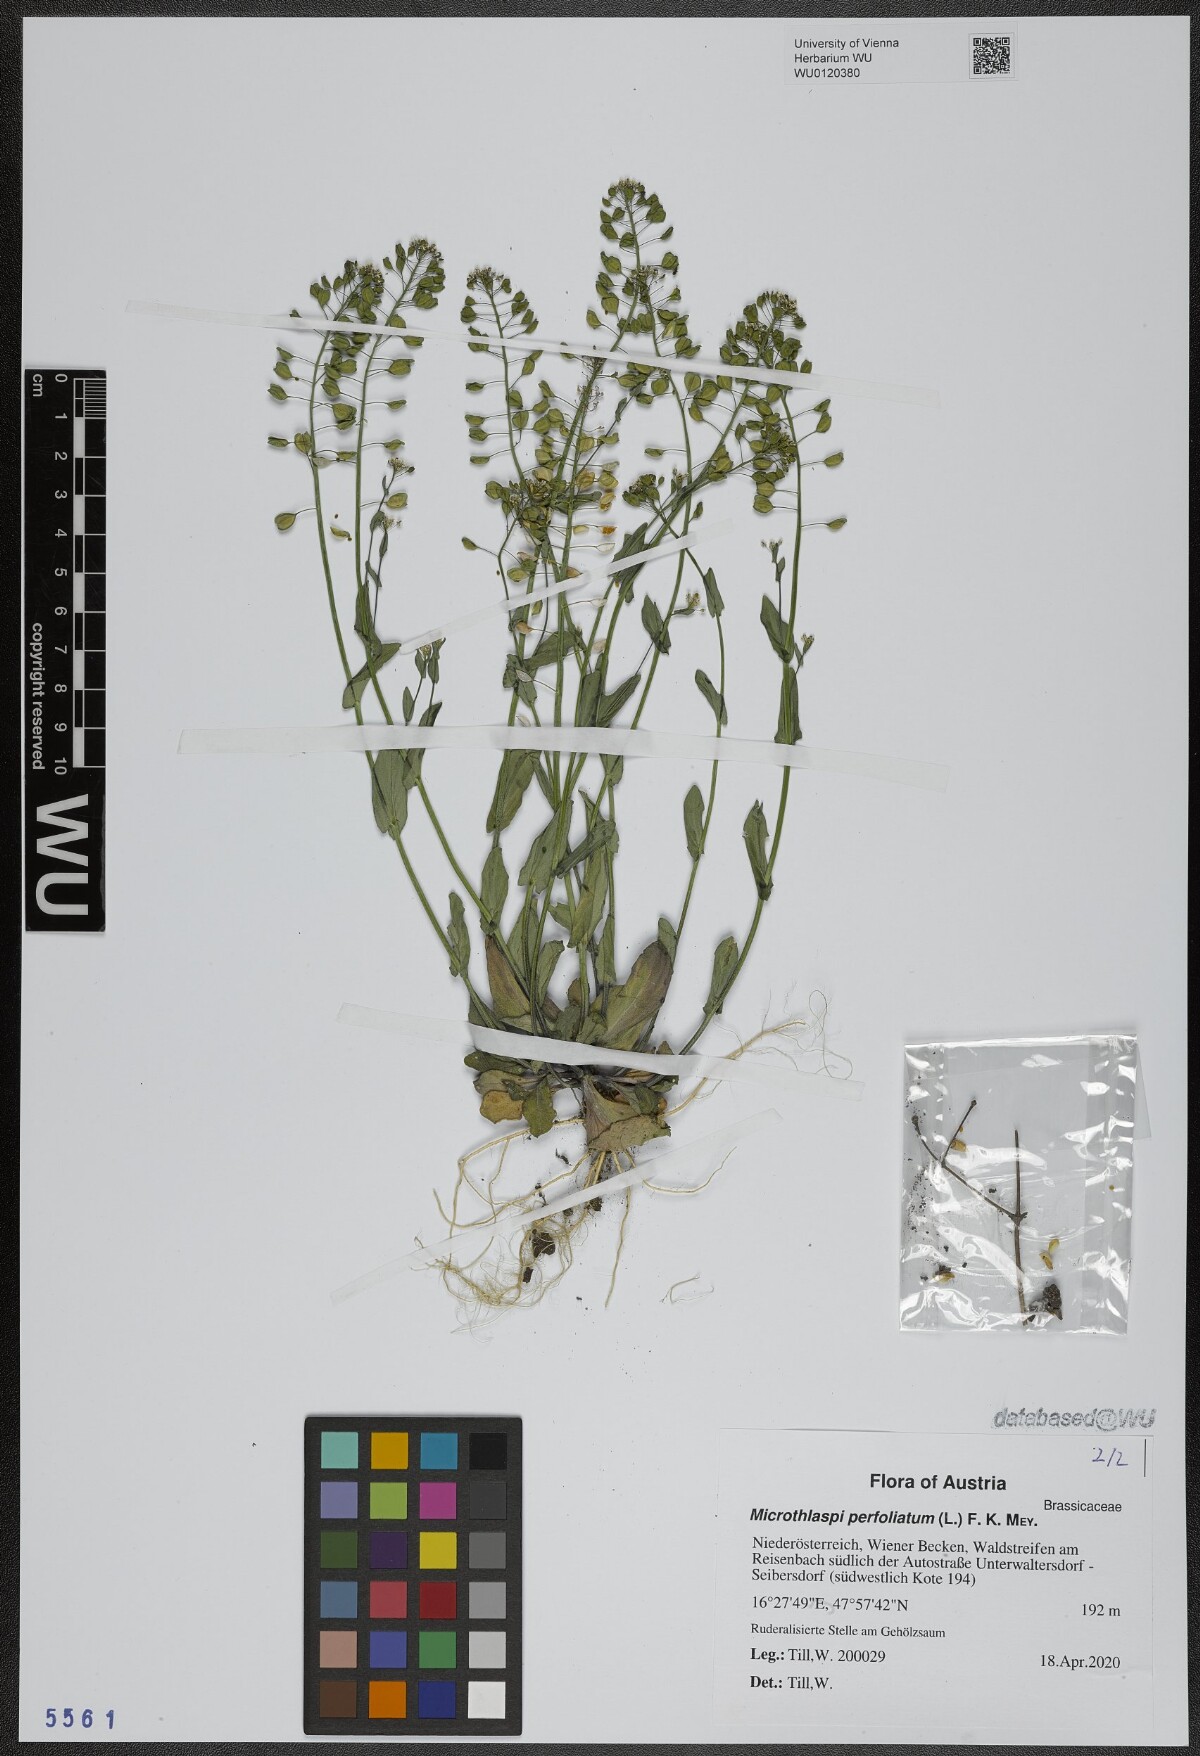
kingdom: Plantae
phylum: Tracheophyta
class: Magnoliopsida
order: Brassicales
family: Brassicaceae
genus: Noccaea
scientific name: Noccaea perfoliata
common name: Perfoliate pennycress
